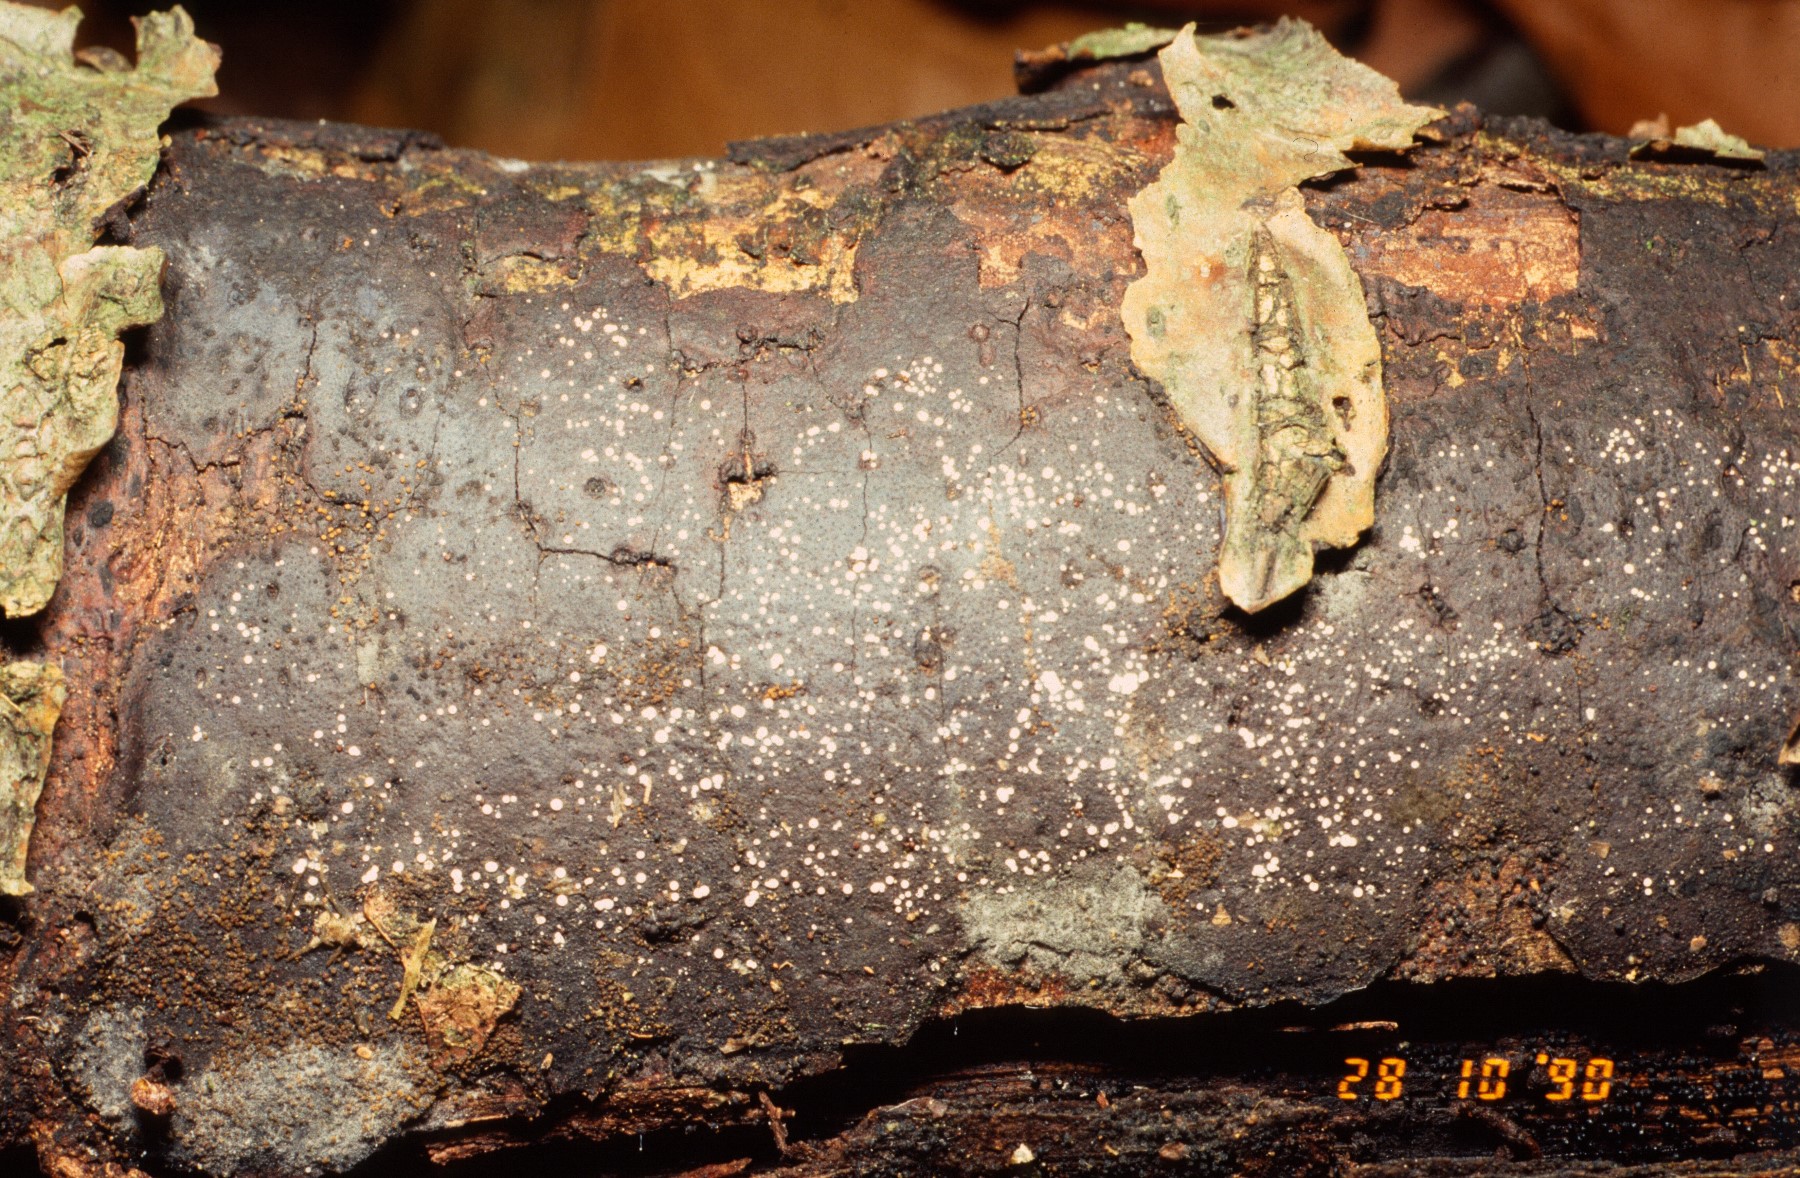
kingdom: Fungi
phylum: Ascomycota
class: Leotiomycetes
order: Helotiales
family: Hyaloscyphaceae
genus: Polydesmia
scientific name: Polydesmia pruinosa
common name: dunskive
